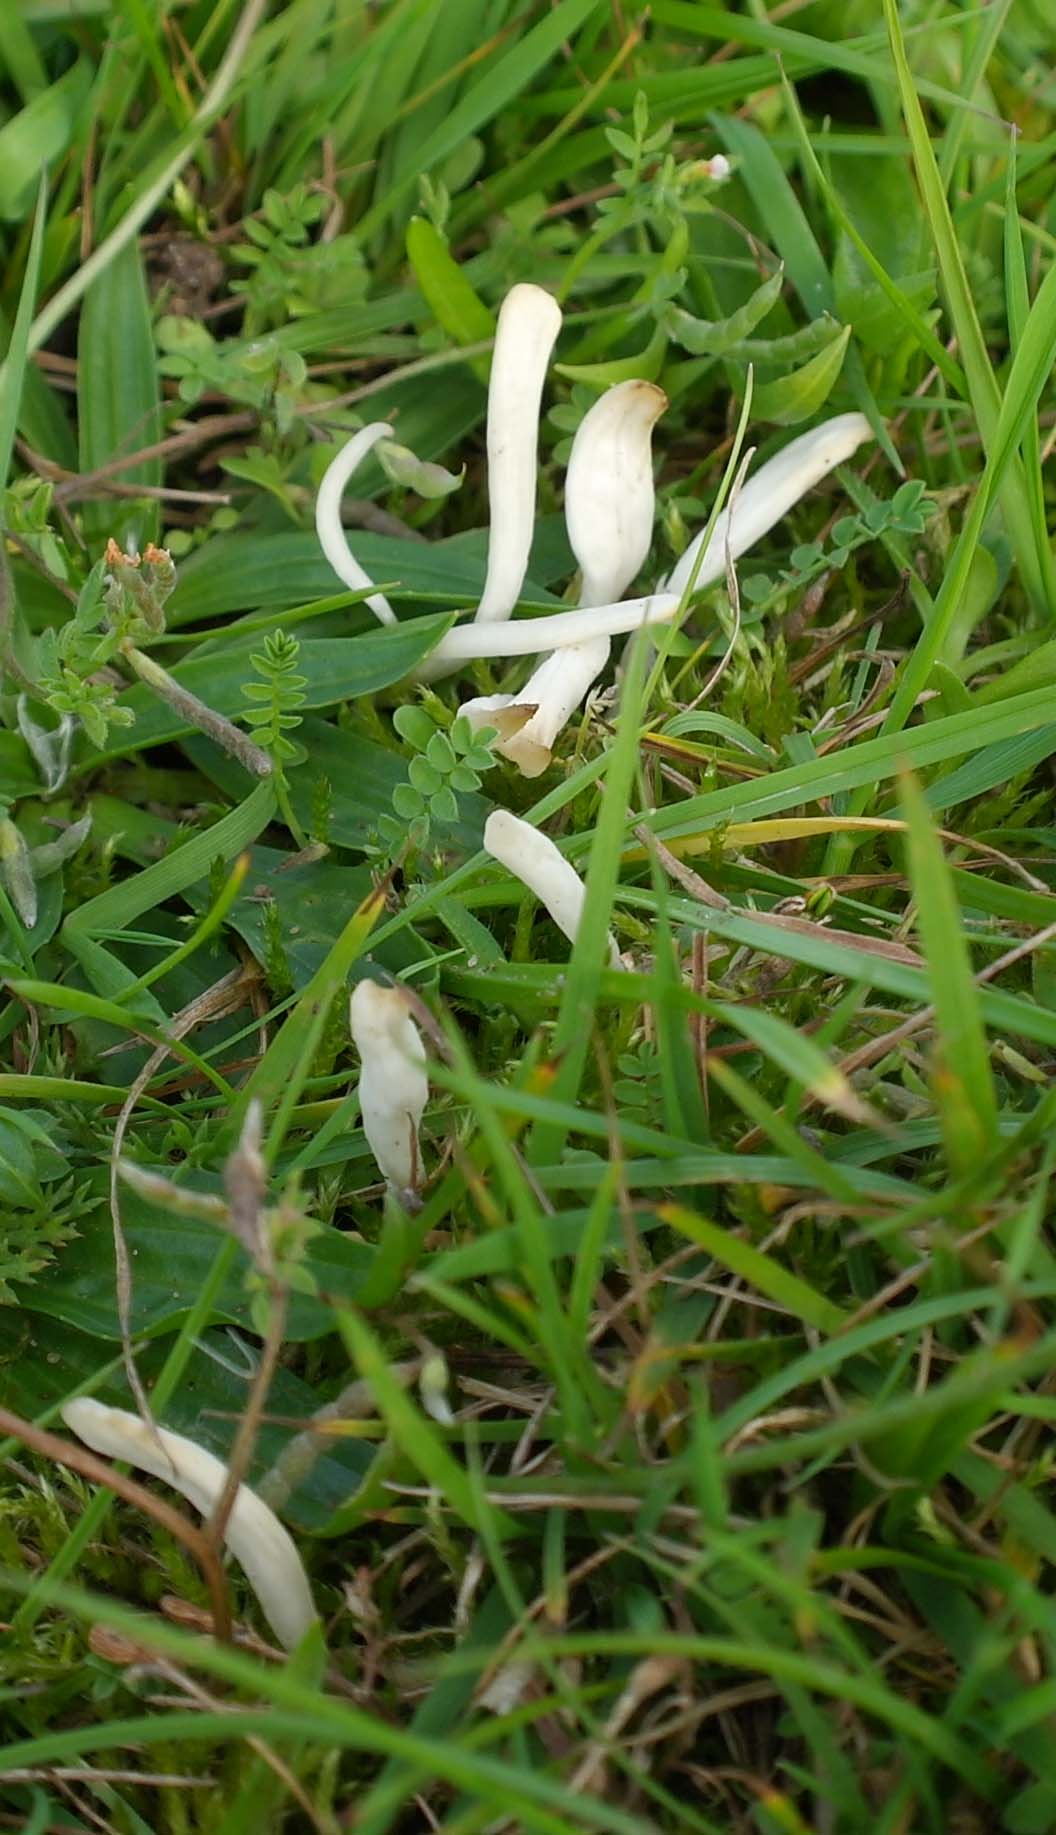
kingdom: Fungi
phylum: Basidiomycota
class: Agaricomycetes
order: Agaricales
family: Clavariaceae
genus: Clavaria
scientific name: Clavaria falcata
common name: hvid køllesvamp
